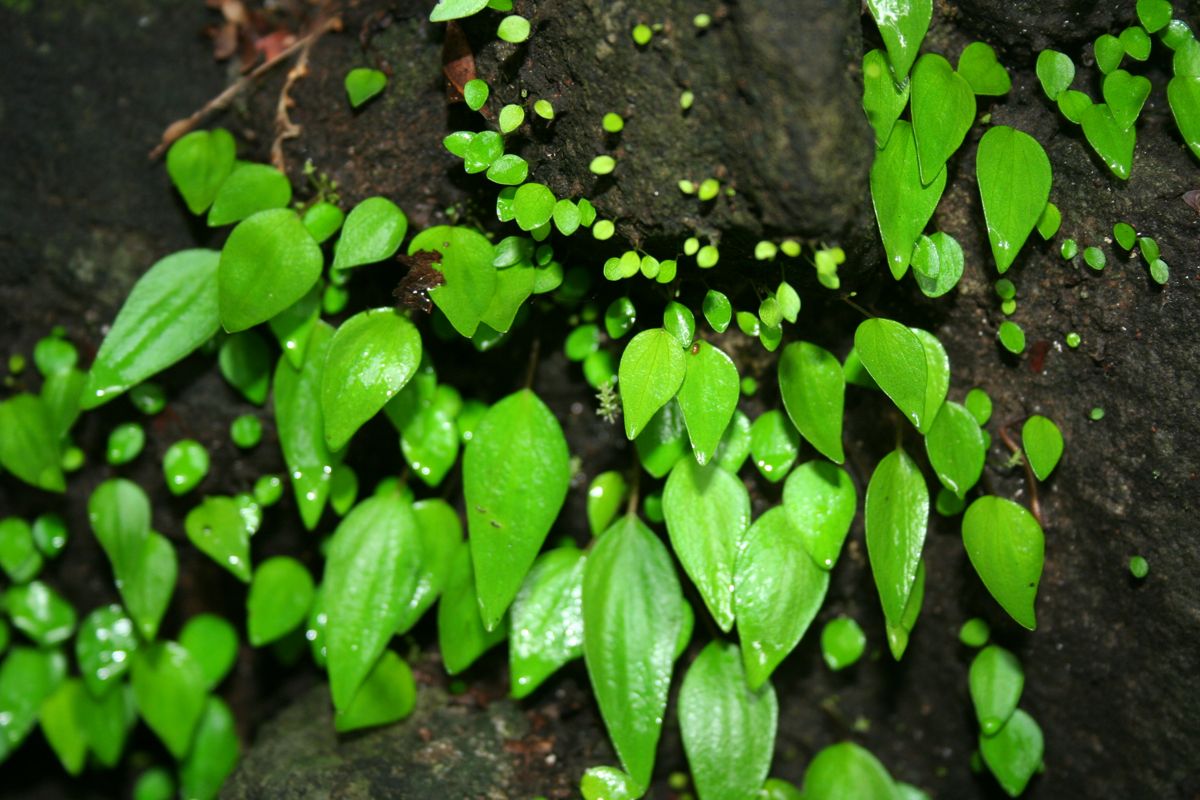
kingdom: Plantae
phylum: Tracheophyta
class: Magnoliopsida
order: Piperales
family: Piperaceae
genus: Peperomia
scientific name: Peperomia mexicana
